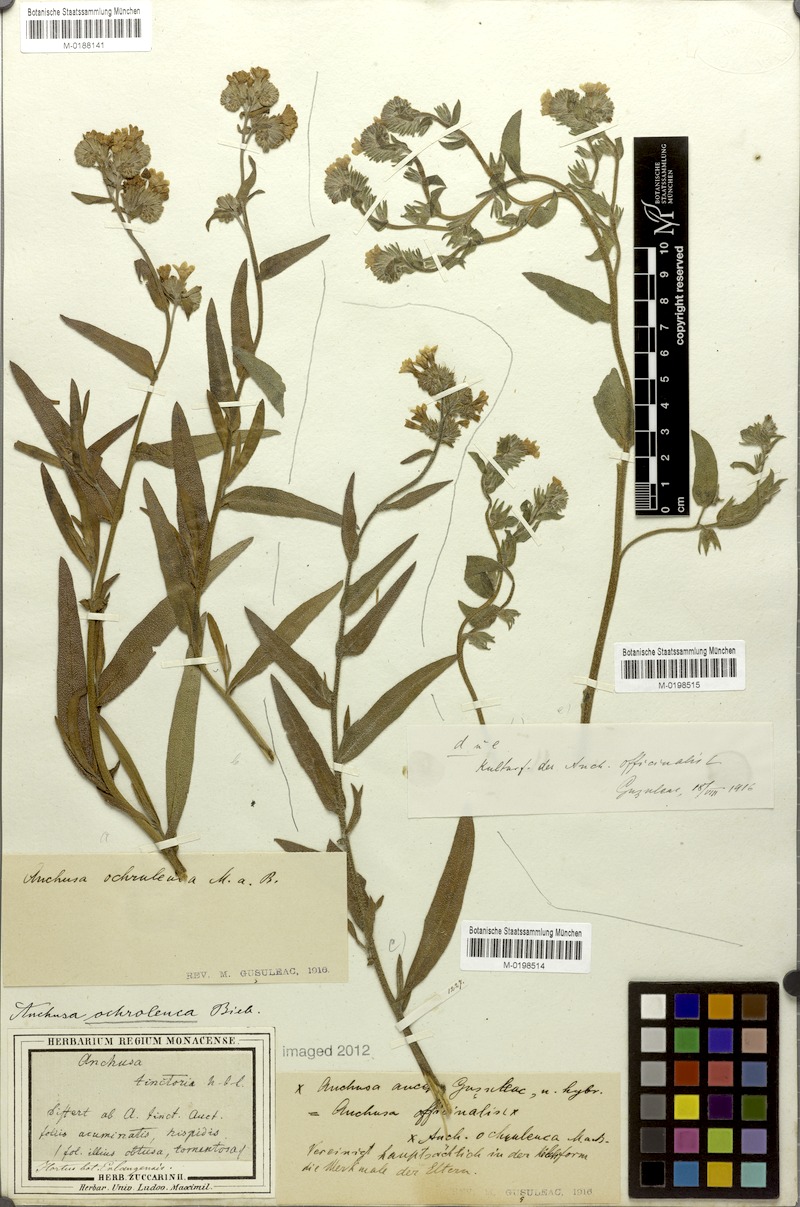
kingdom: Plantae
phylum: Tracheophyta
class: Magnoliopsida
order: Boraginales
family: Boraginaceae
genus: Anchusa
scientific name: Anchusa officinalis
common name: Alkanet
